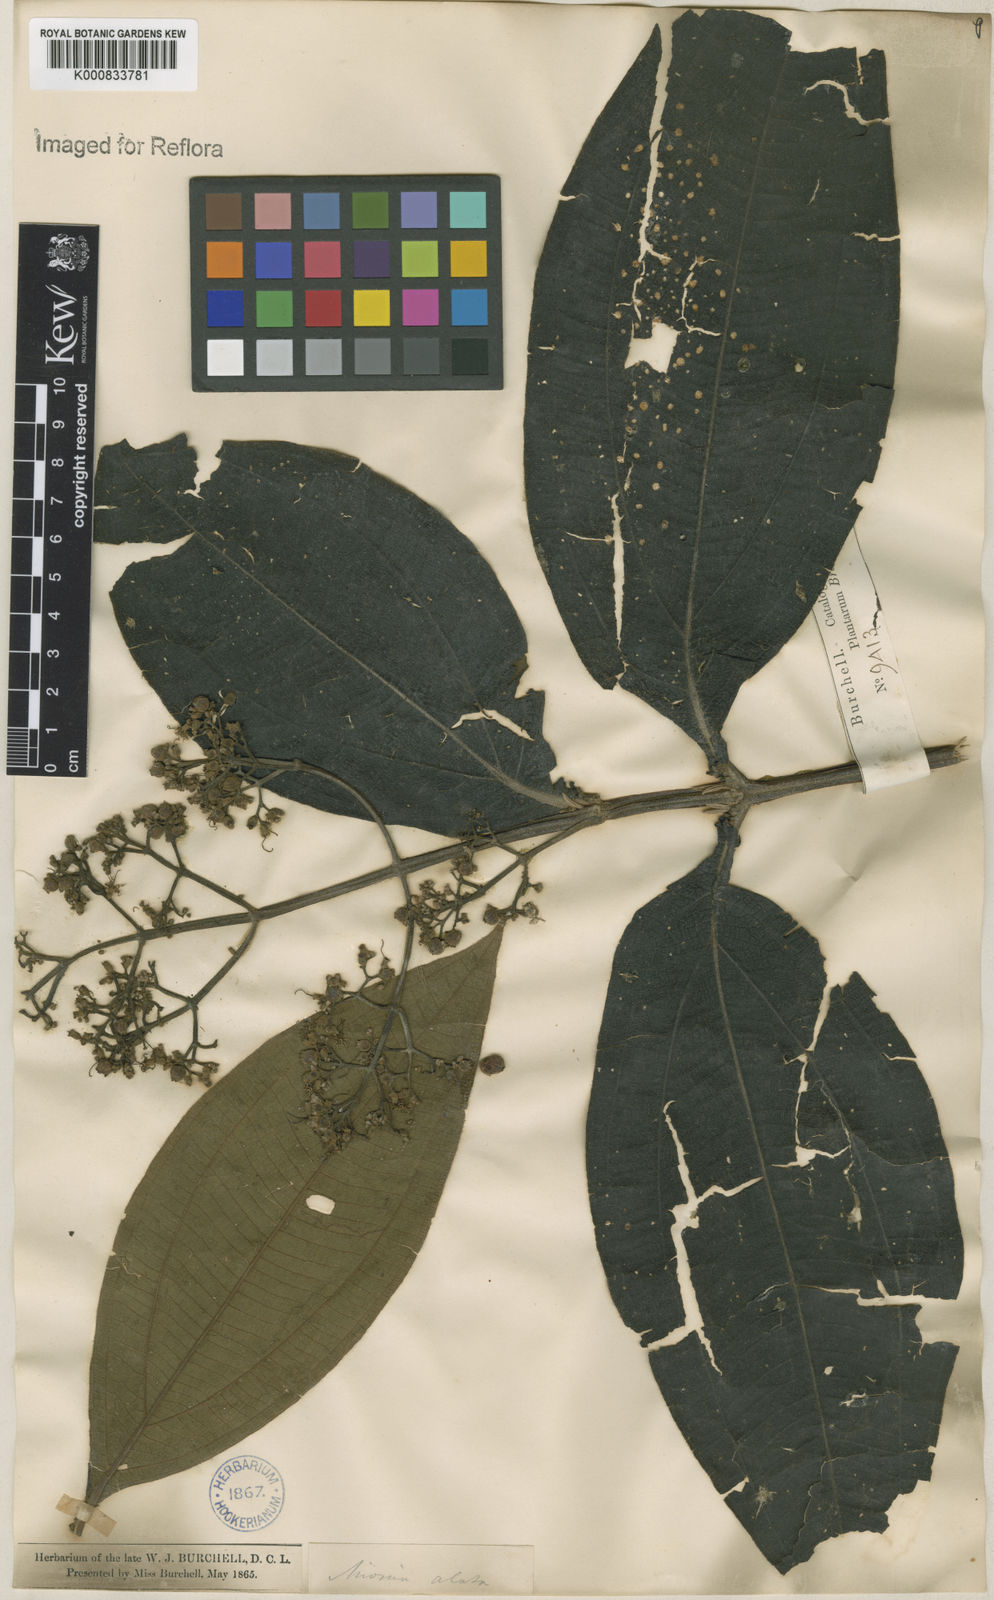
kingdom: Plantae
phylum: Tracheophyta
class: Magnoliopsida
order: Myrtales
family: Melastomataceae
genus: Miconia
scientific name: Miconia alata
